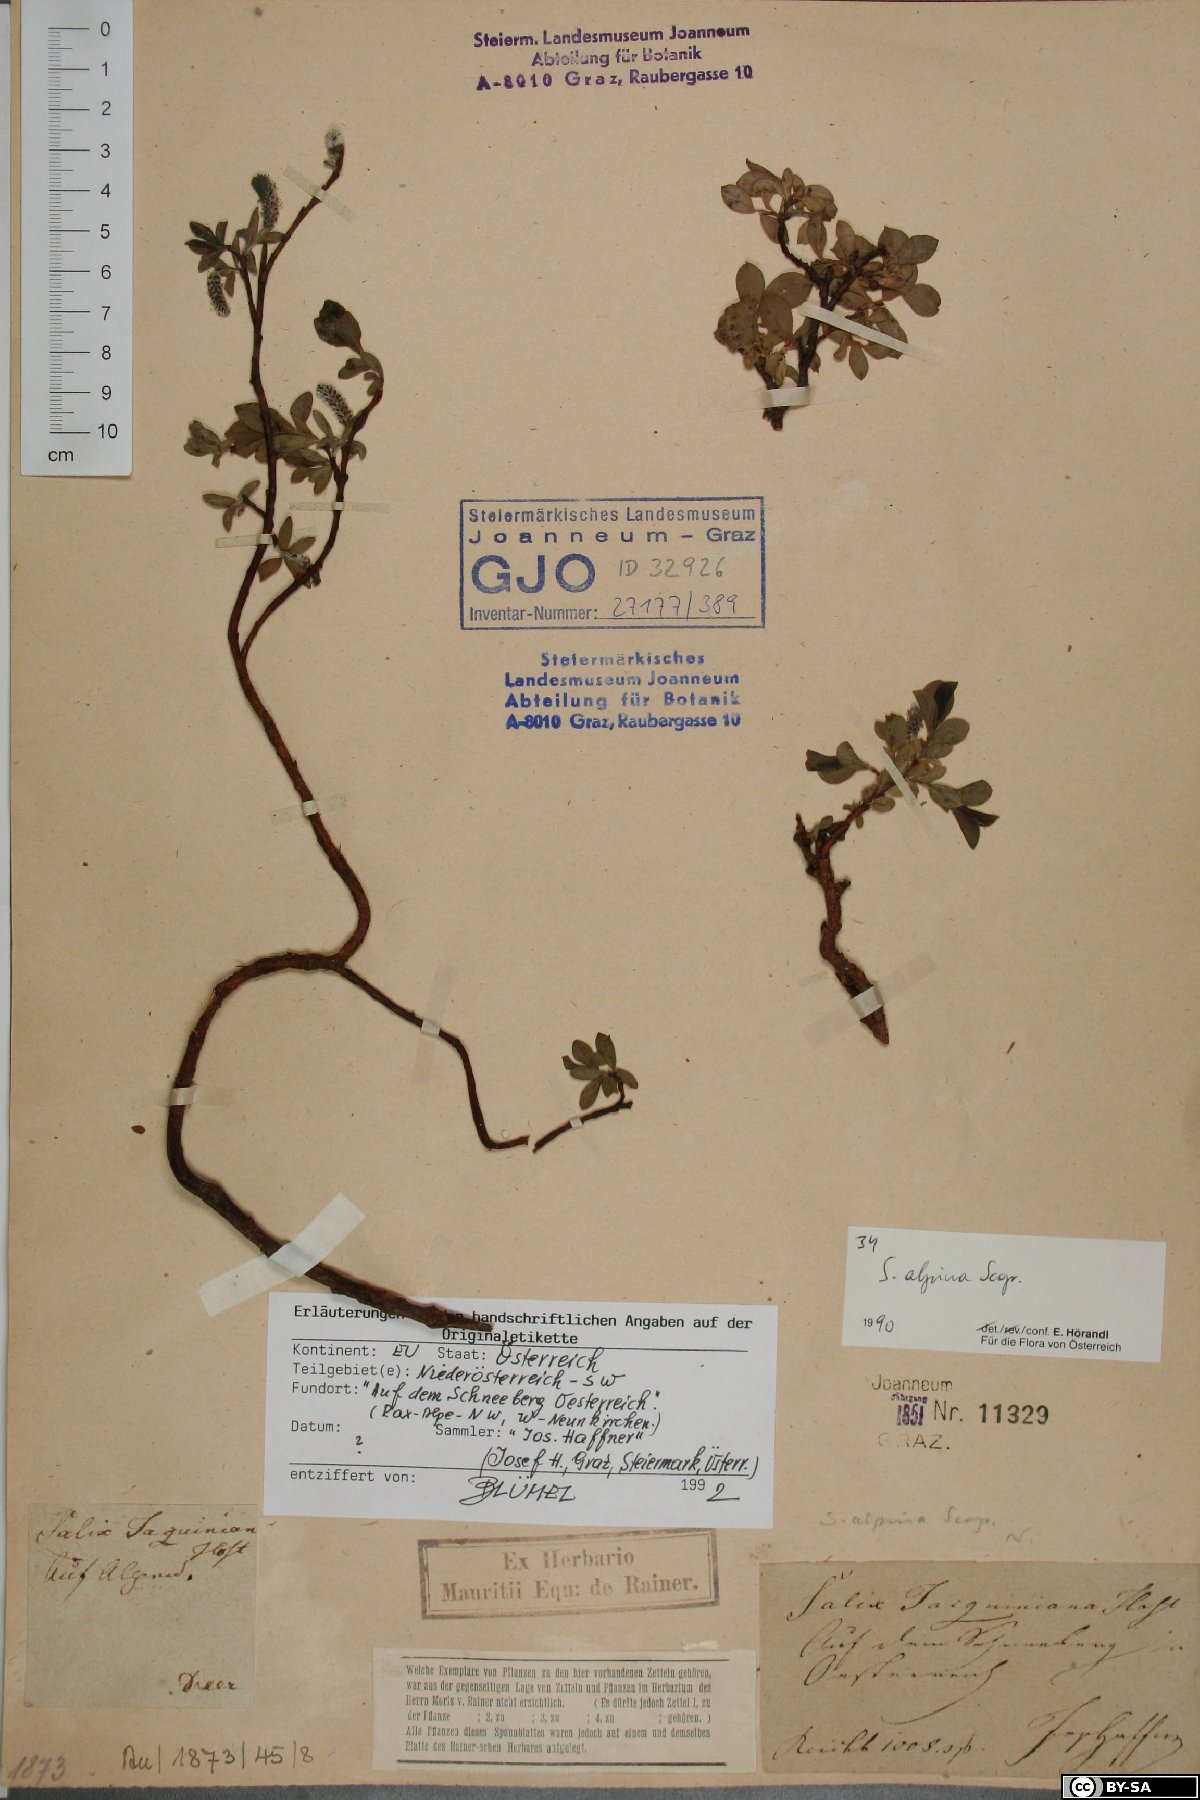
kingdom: Plantae
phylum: Tracheophyta
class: Magnoliopsida
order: Malpighiales
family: Salicaceae
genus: Salix
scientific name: Salix alpina
